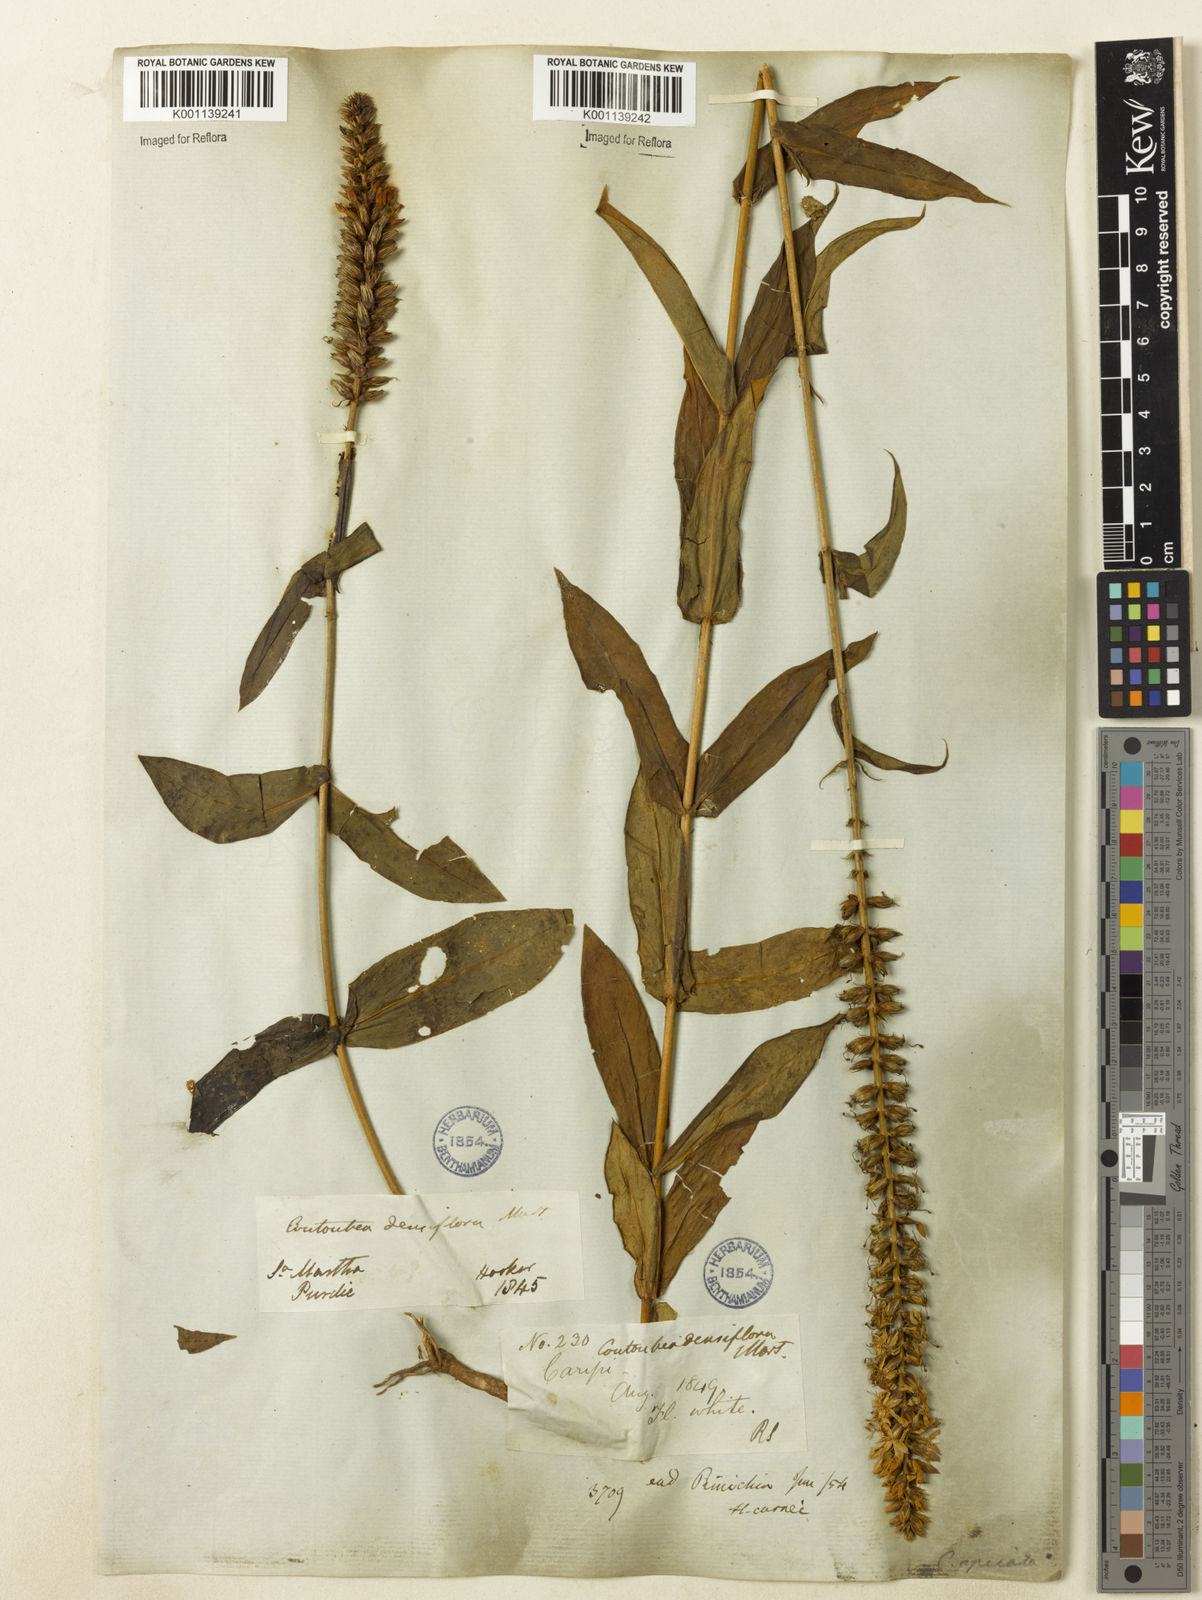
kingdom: Plantae
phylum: Tracheophyta
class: Magnoliopsida
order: Gentianales
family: Gentianaceae
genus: Coutoubea
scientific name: Coutoubea spicata
